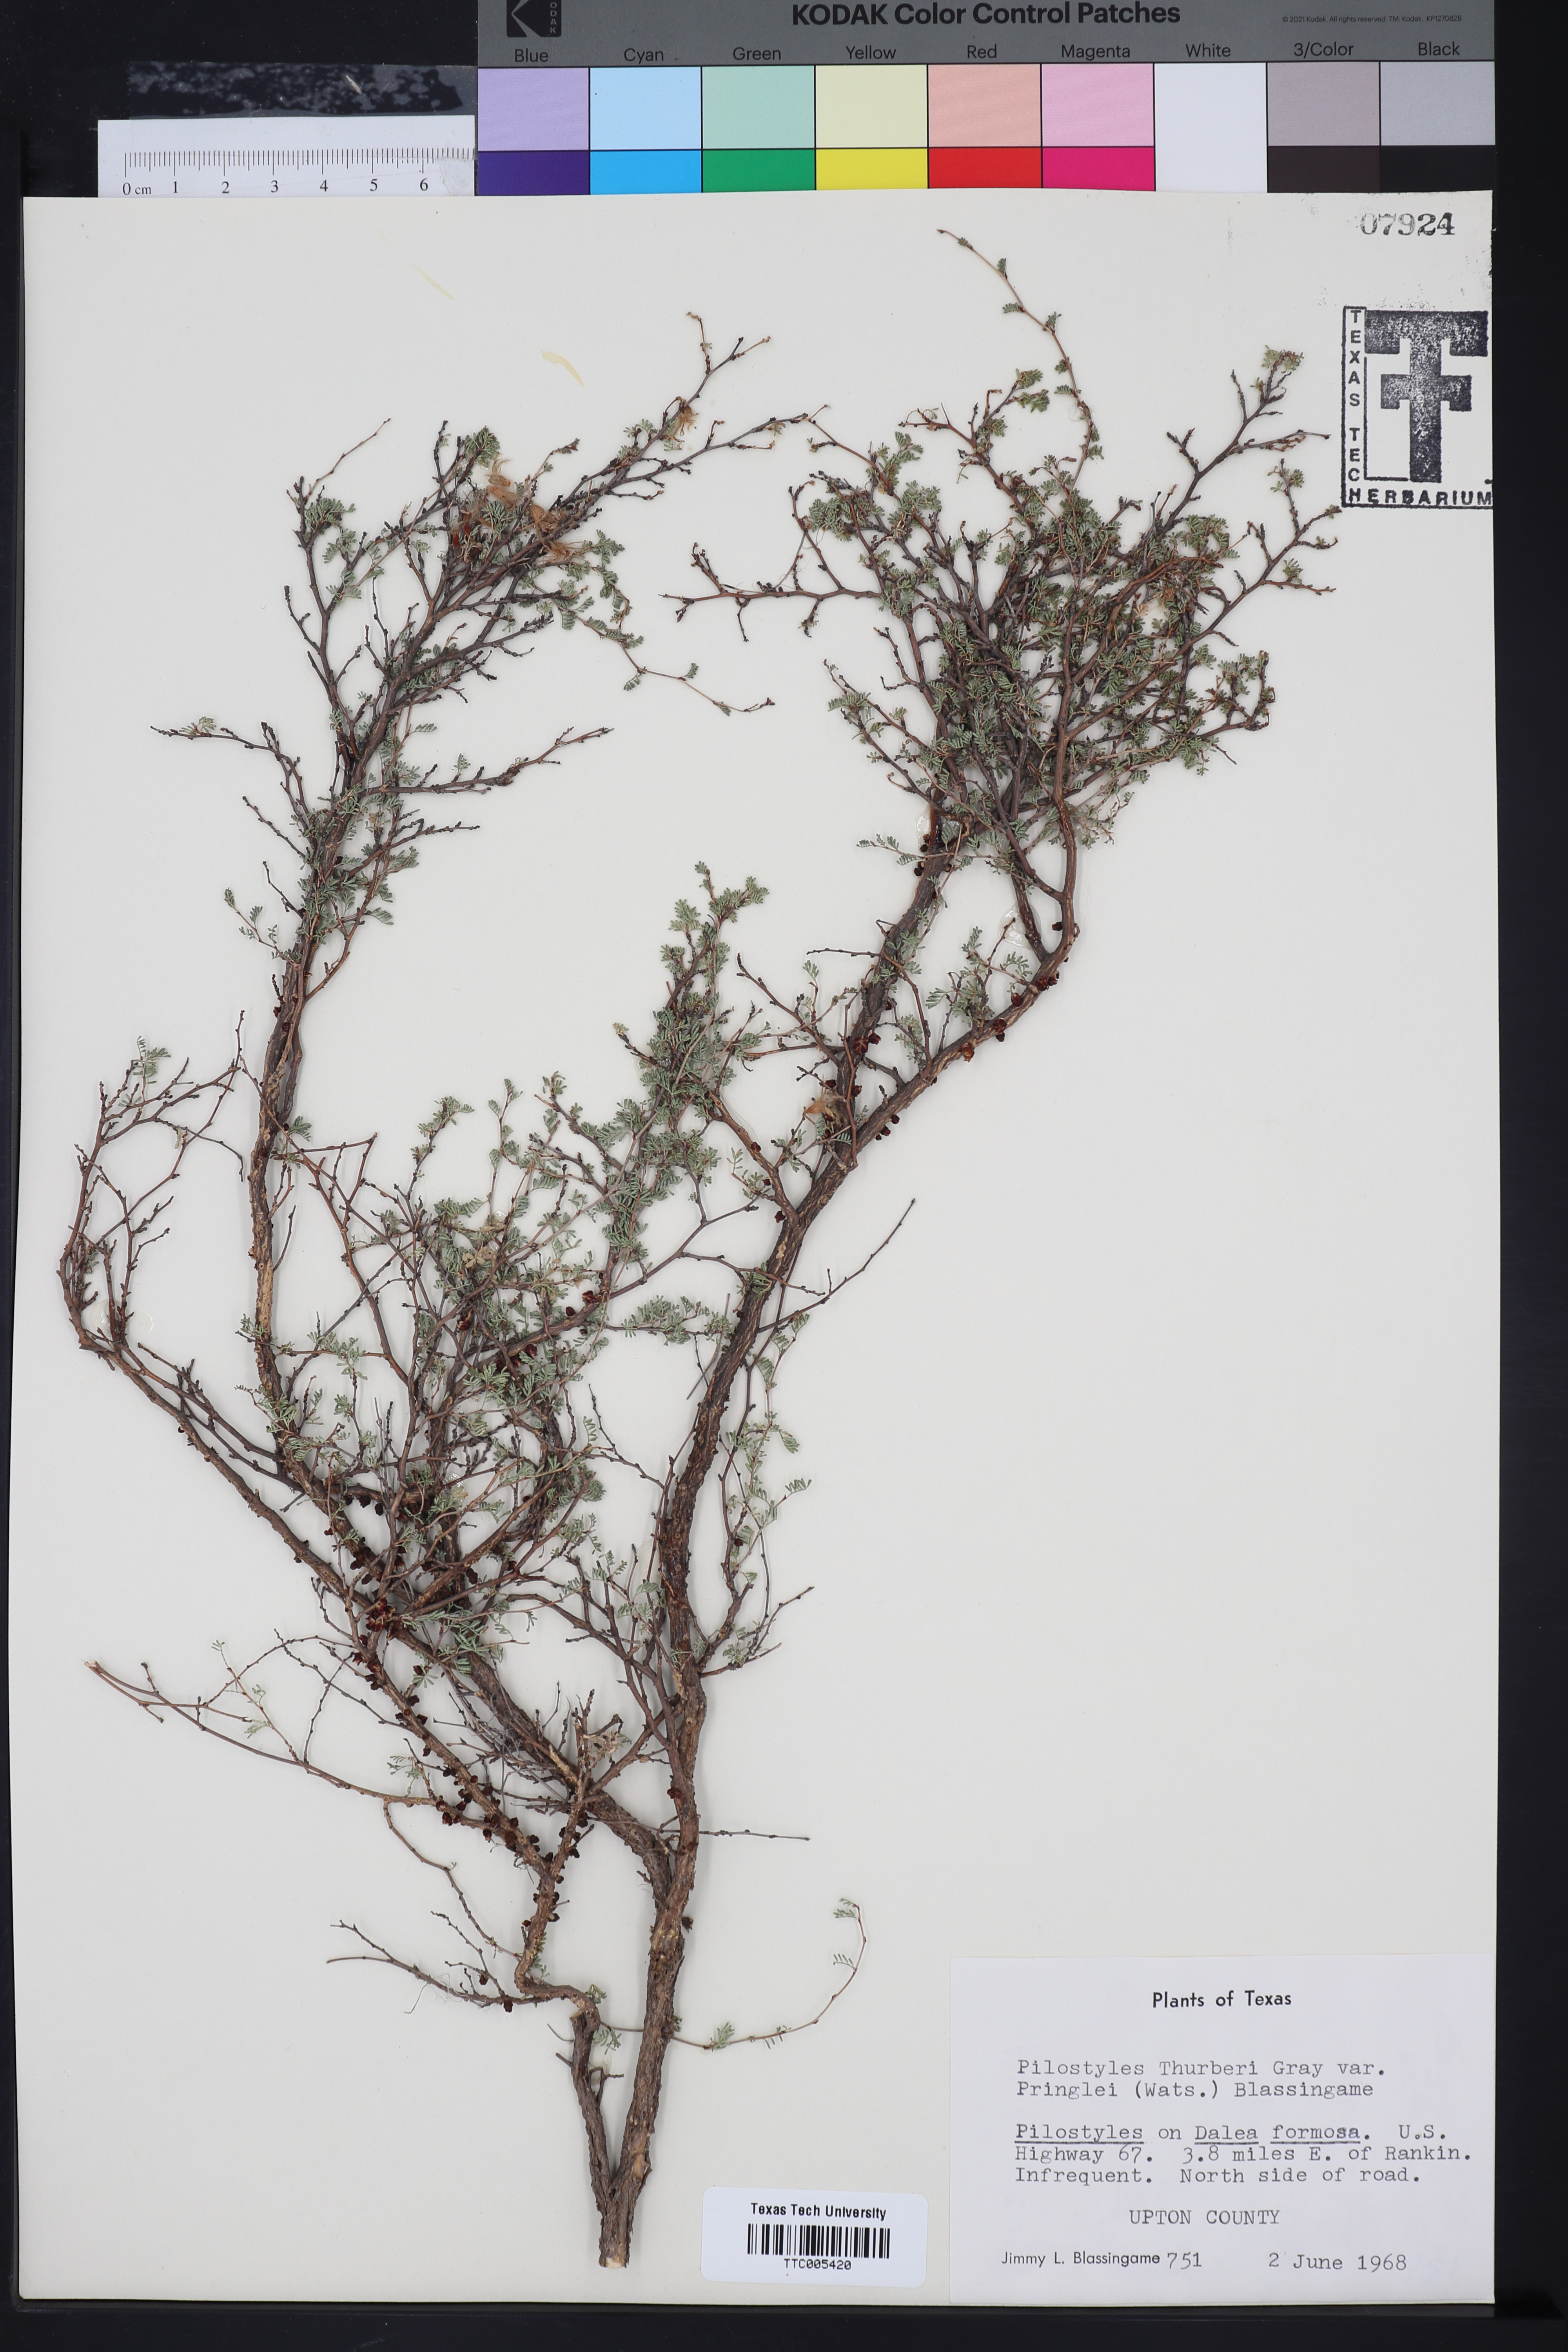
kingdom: Plantae
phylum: Tracheophyta
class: Magnoliopsida
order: Cucurbitales
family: Apodanthaceae
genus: Pilostyles
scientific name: Pilostyles thurberi
